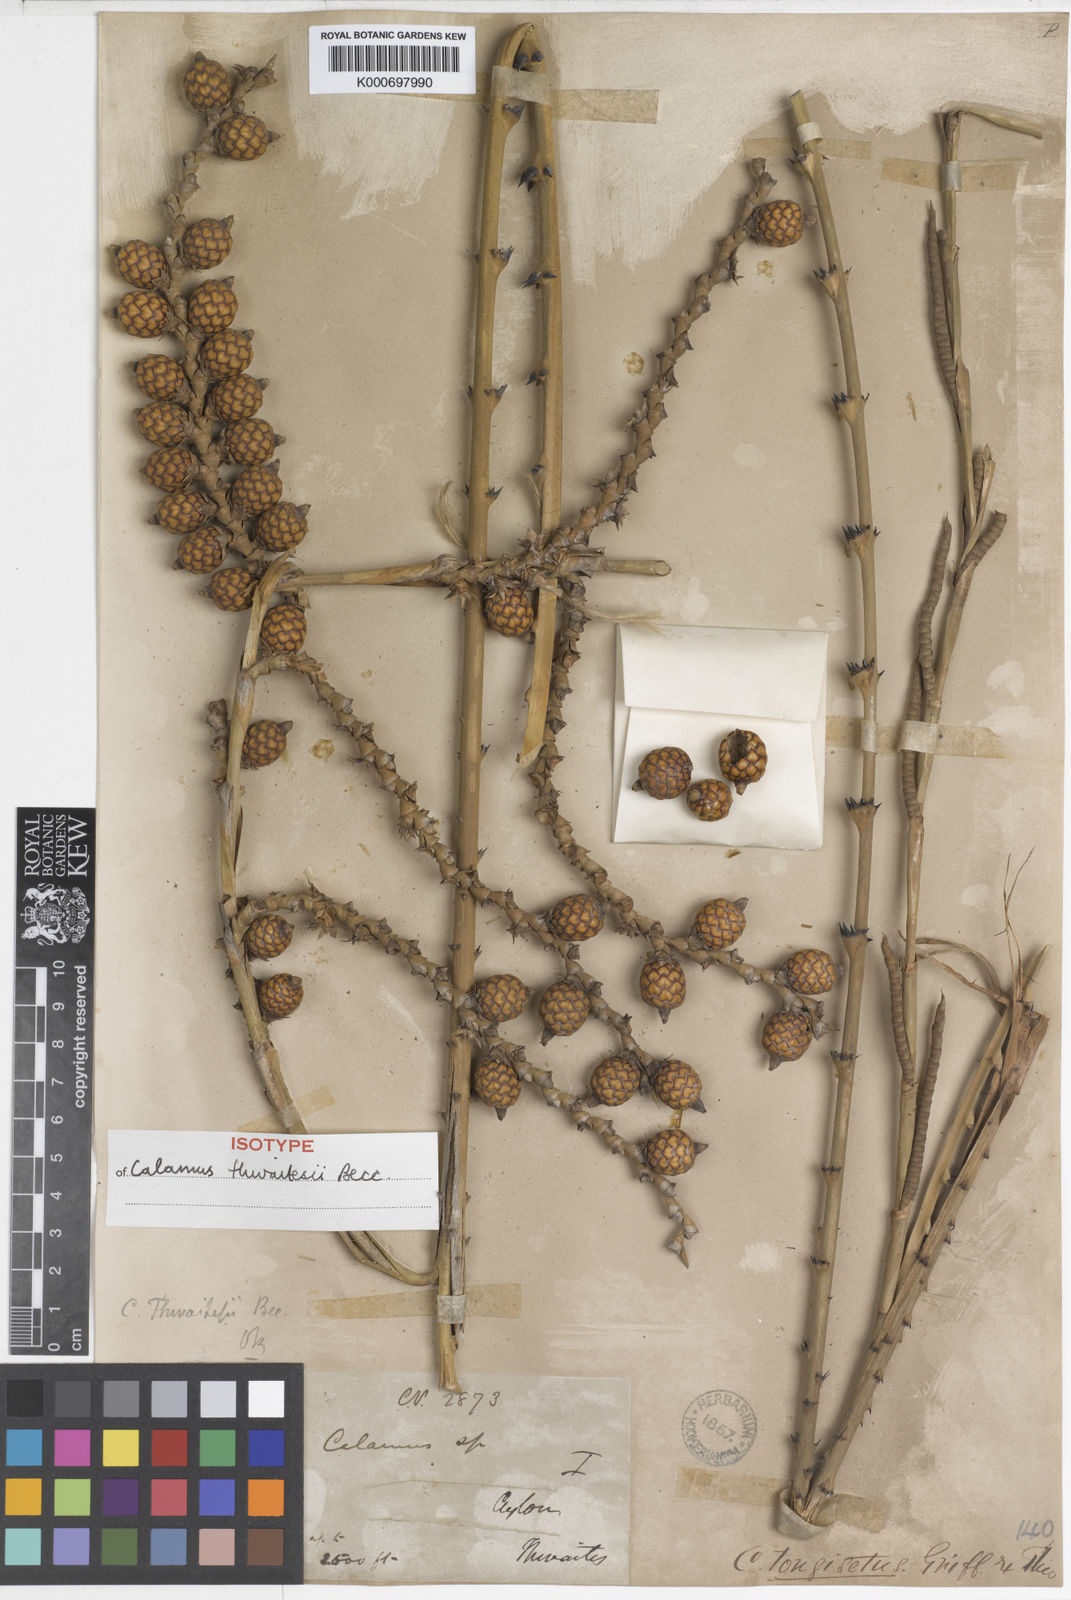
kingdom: Plantae
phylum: Tracheophyta
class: Liliopsida
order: Arecales
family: Arecaceae
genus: Calamus
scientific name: Calamus thwaitesii
